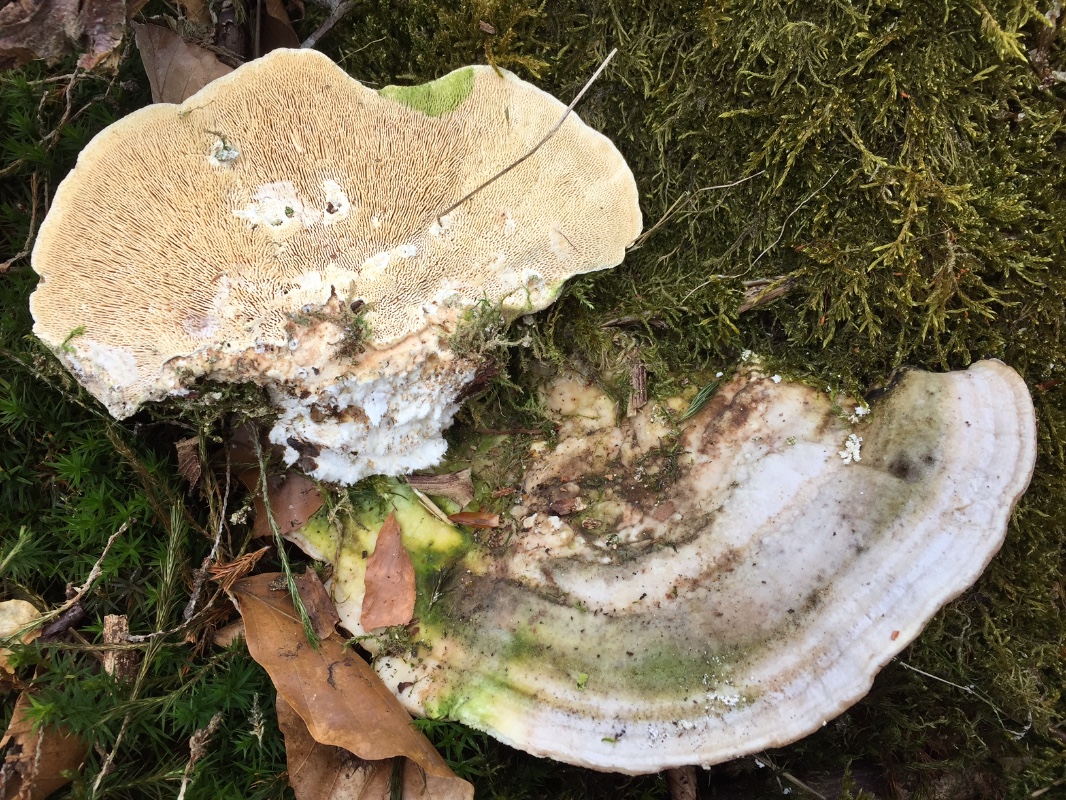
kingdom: Fungi
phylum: Basidiomycota
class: Agaricomycetes
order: Polyporales
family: Polyporaceae
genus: Trametes
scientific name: Trametes gibbosa
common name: puklet læderporesvamp
